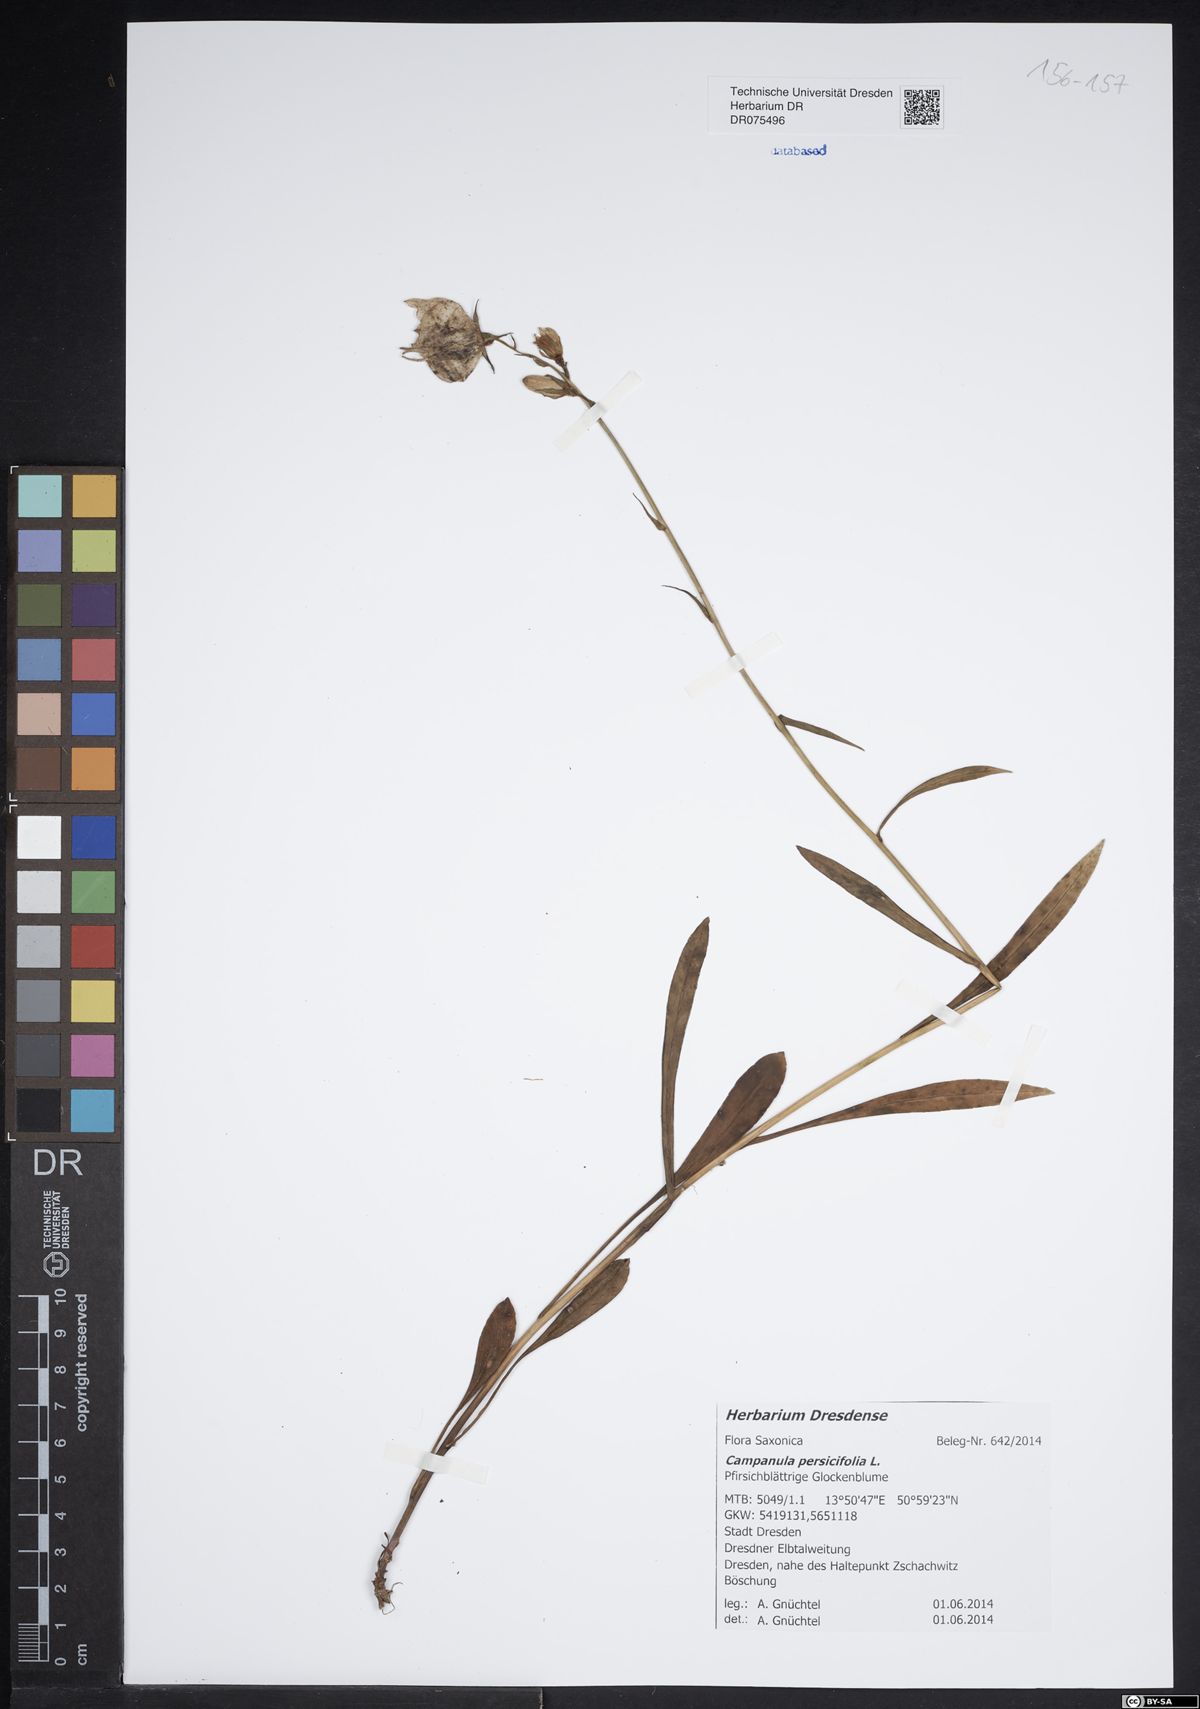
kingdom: Plantae
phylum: Tracheophyta
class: Magnoliopsida
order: Asterales
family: Campanulaceae
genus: Campanula
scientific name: Campanula persicifolia
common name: Peach-leaved bellflower
